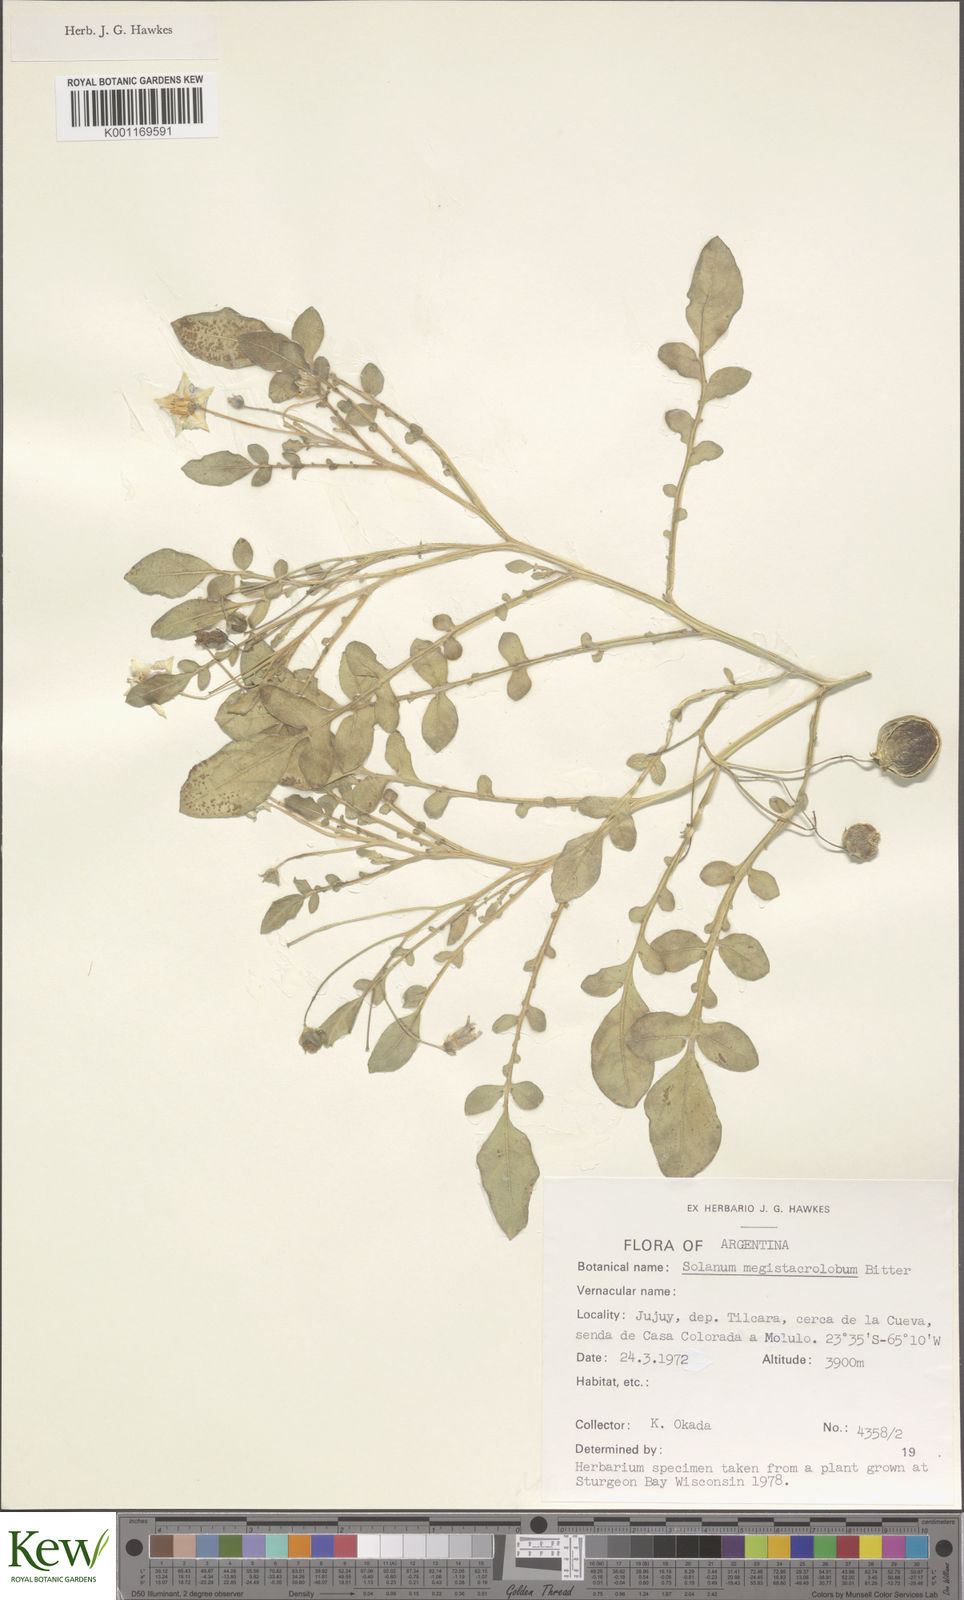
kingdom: Plantae
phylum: Tracheophyta
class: Magnoliopsida
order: Solanales
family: Solanaceae
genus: Solanum
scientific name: Solanum boliviense
